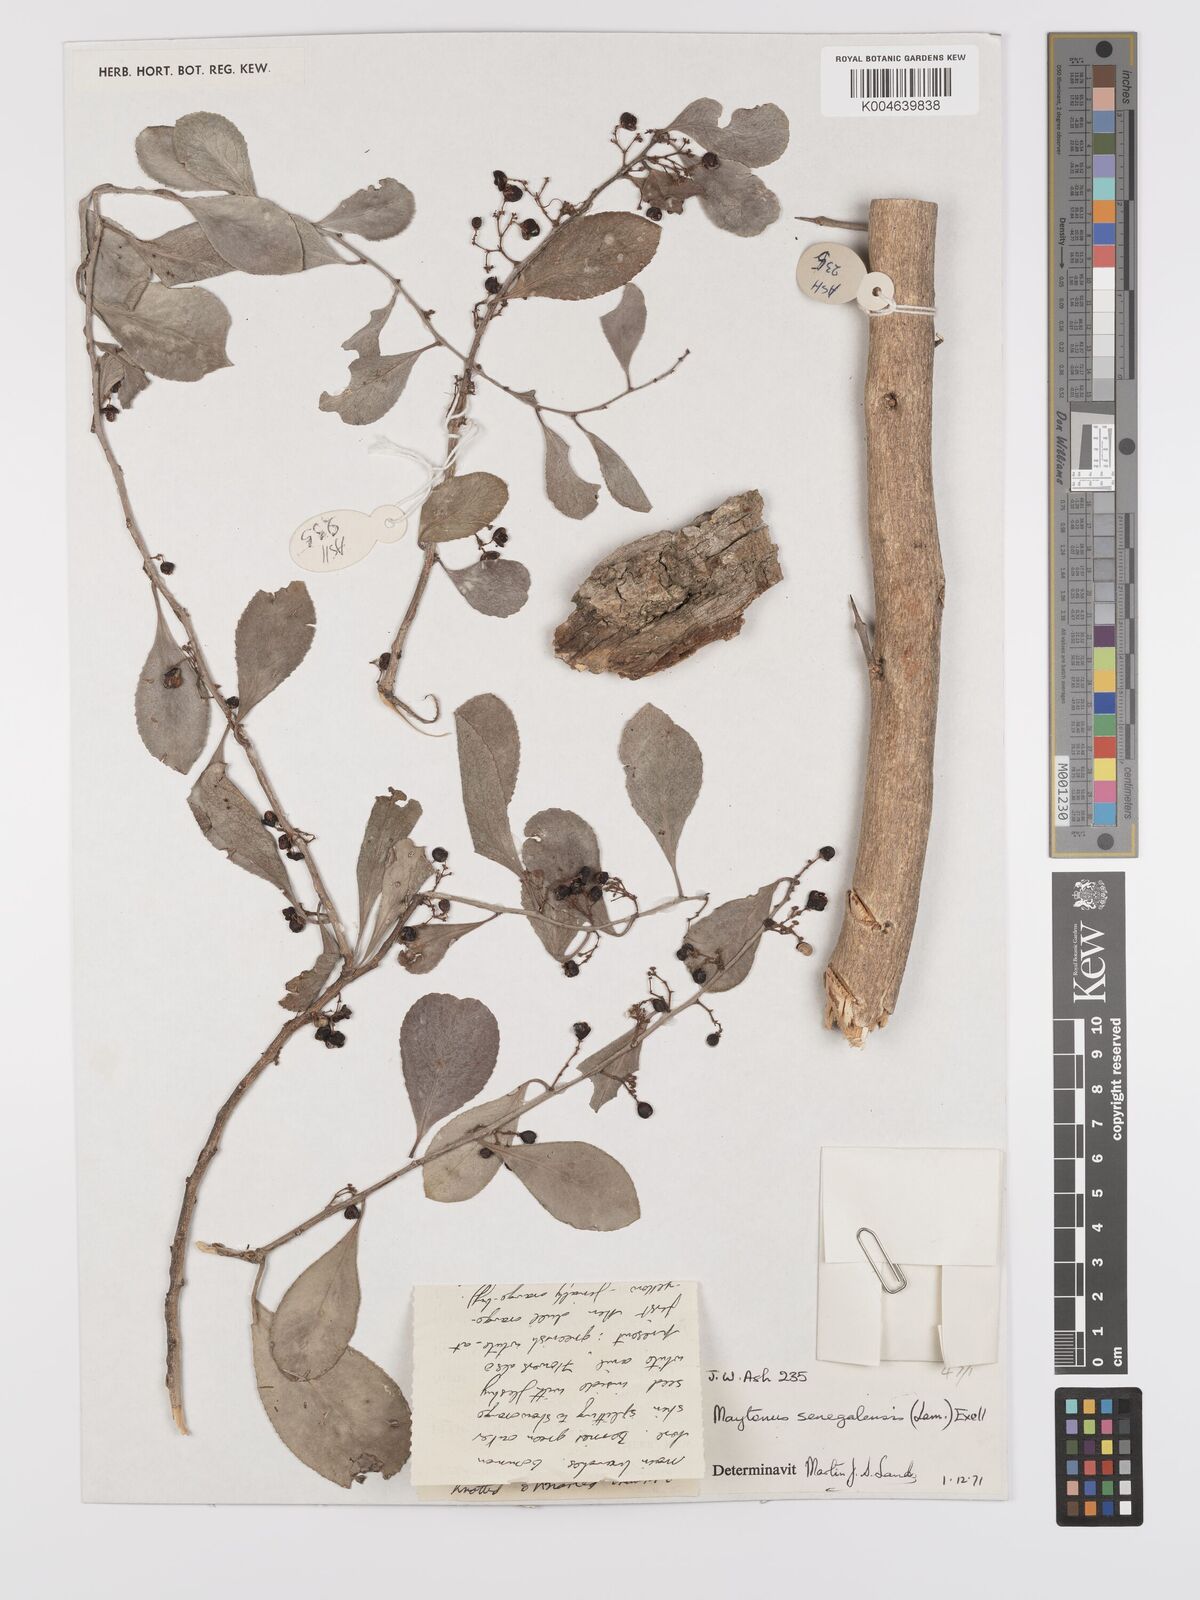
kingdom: Plantae
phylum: Tracheophyta
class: Magnoliopsida
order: Celastrales
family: Celastraceae
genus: Gymnosporia
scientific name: Gymnosporia senegalensis
